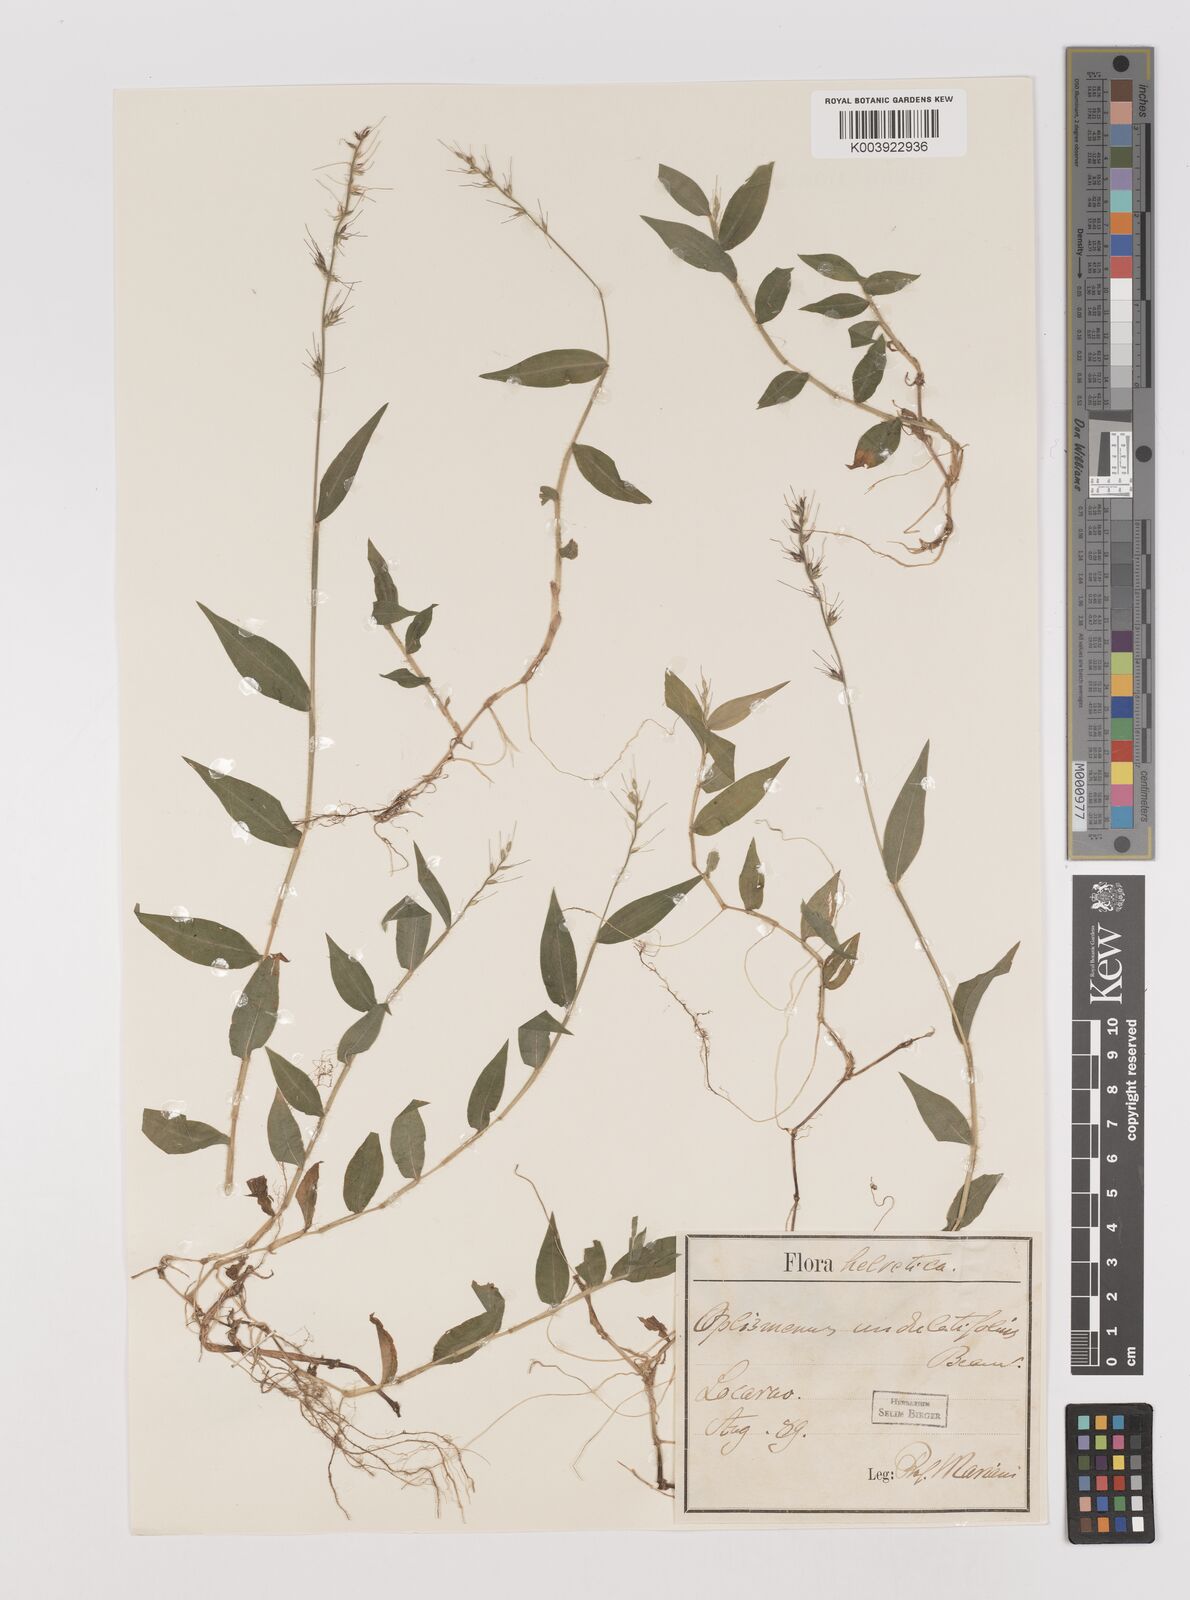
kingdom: Plantae
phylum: Tracheophyta
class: Liliopsida
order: Poales
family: Poaceae
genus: Oplismenus
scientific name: Oplismenus undulatifolius
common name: Wavyleaf basketgrass
